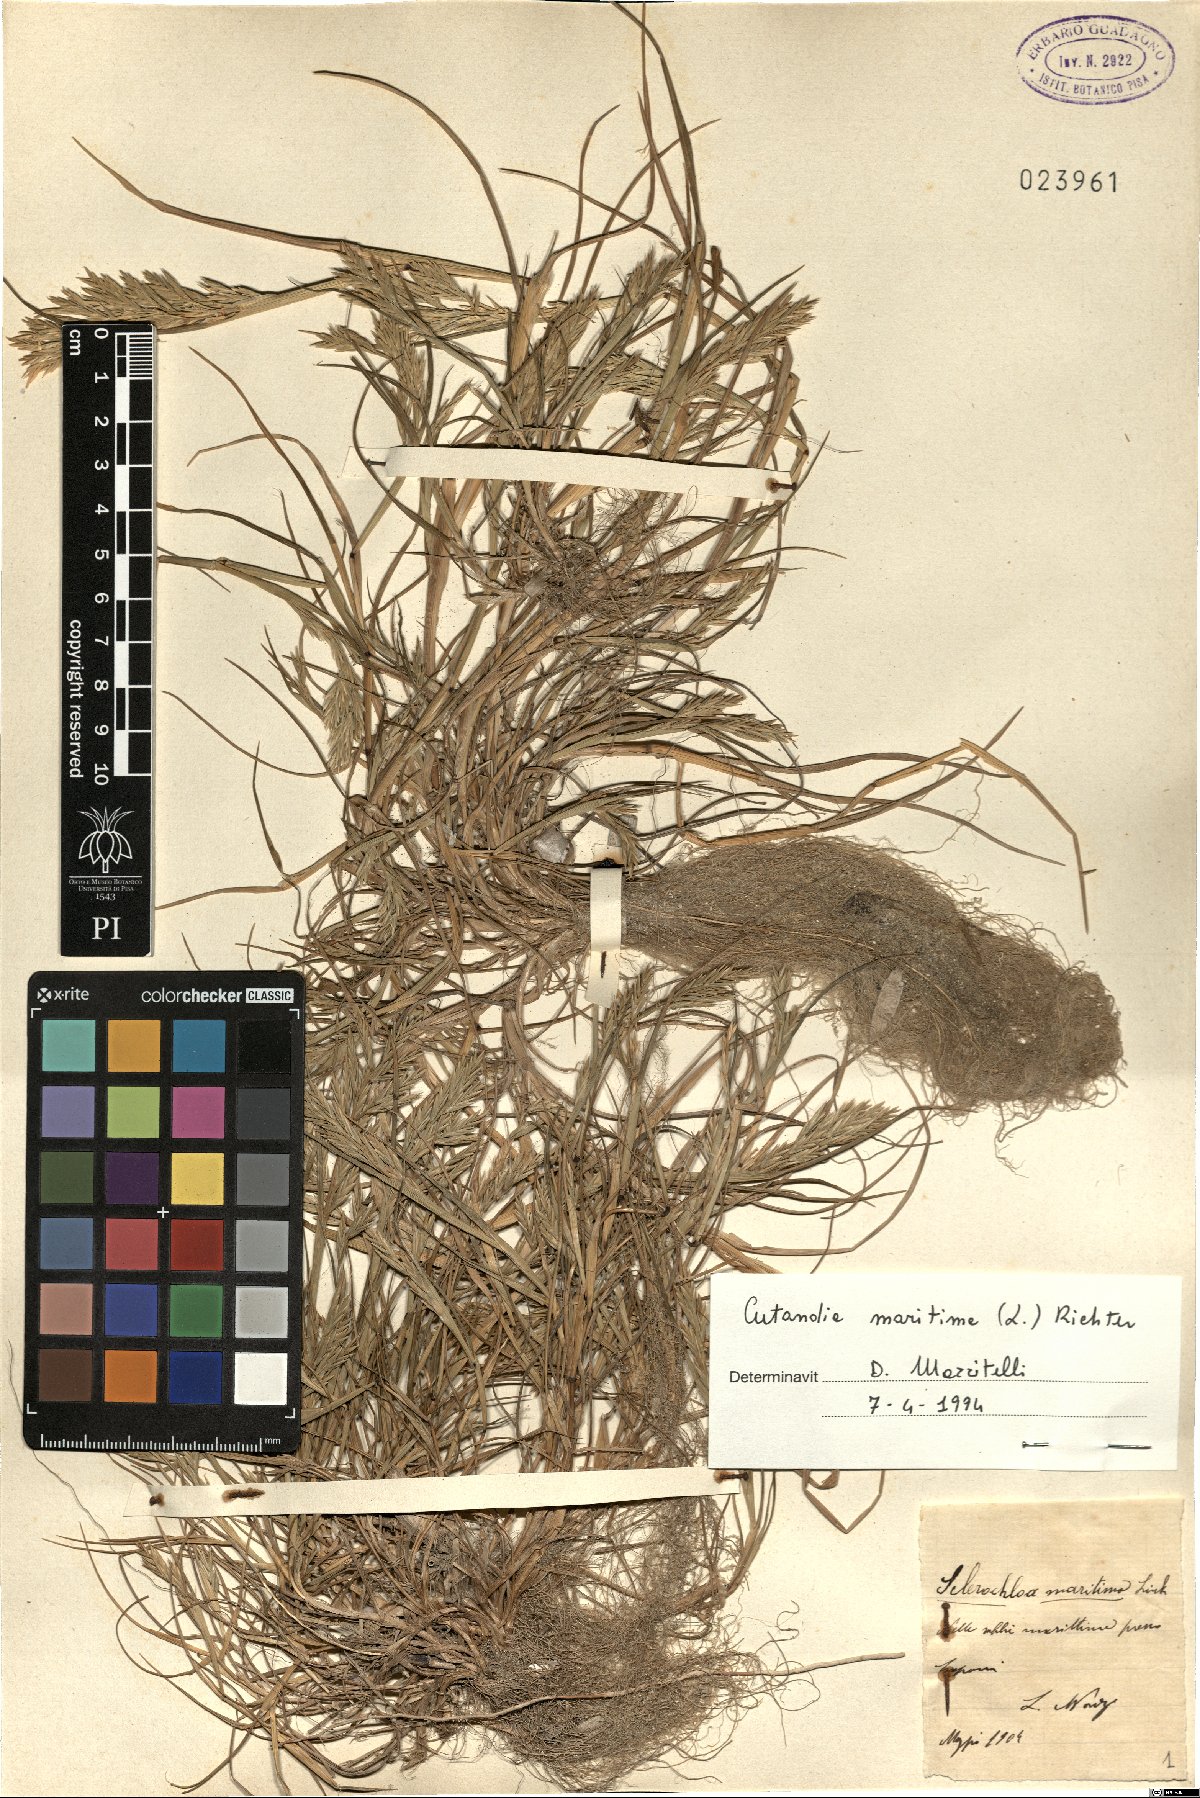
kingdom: Plantae
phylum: Tracheophyta
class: Liliopsida
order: Poales
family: Poaceae
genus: Cutandia
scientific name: Cutandia maritima
